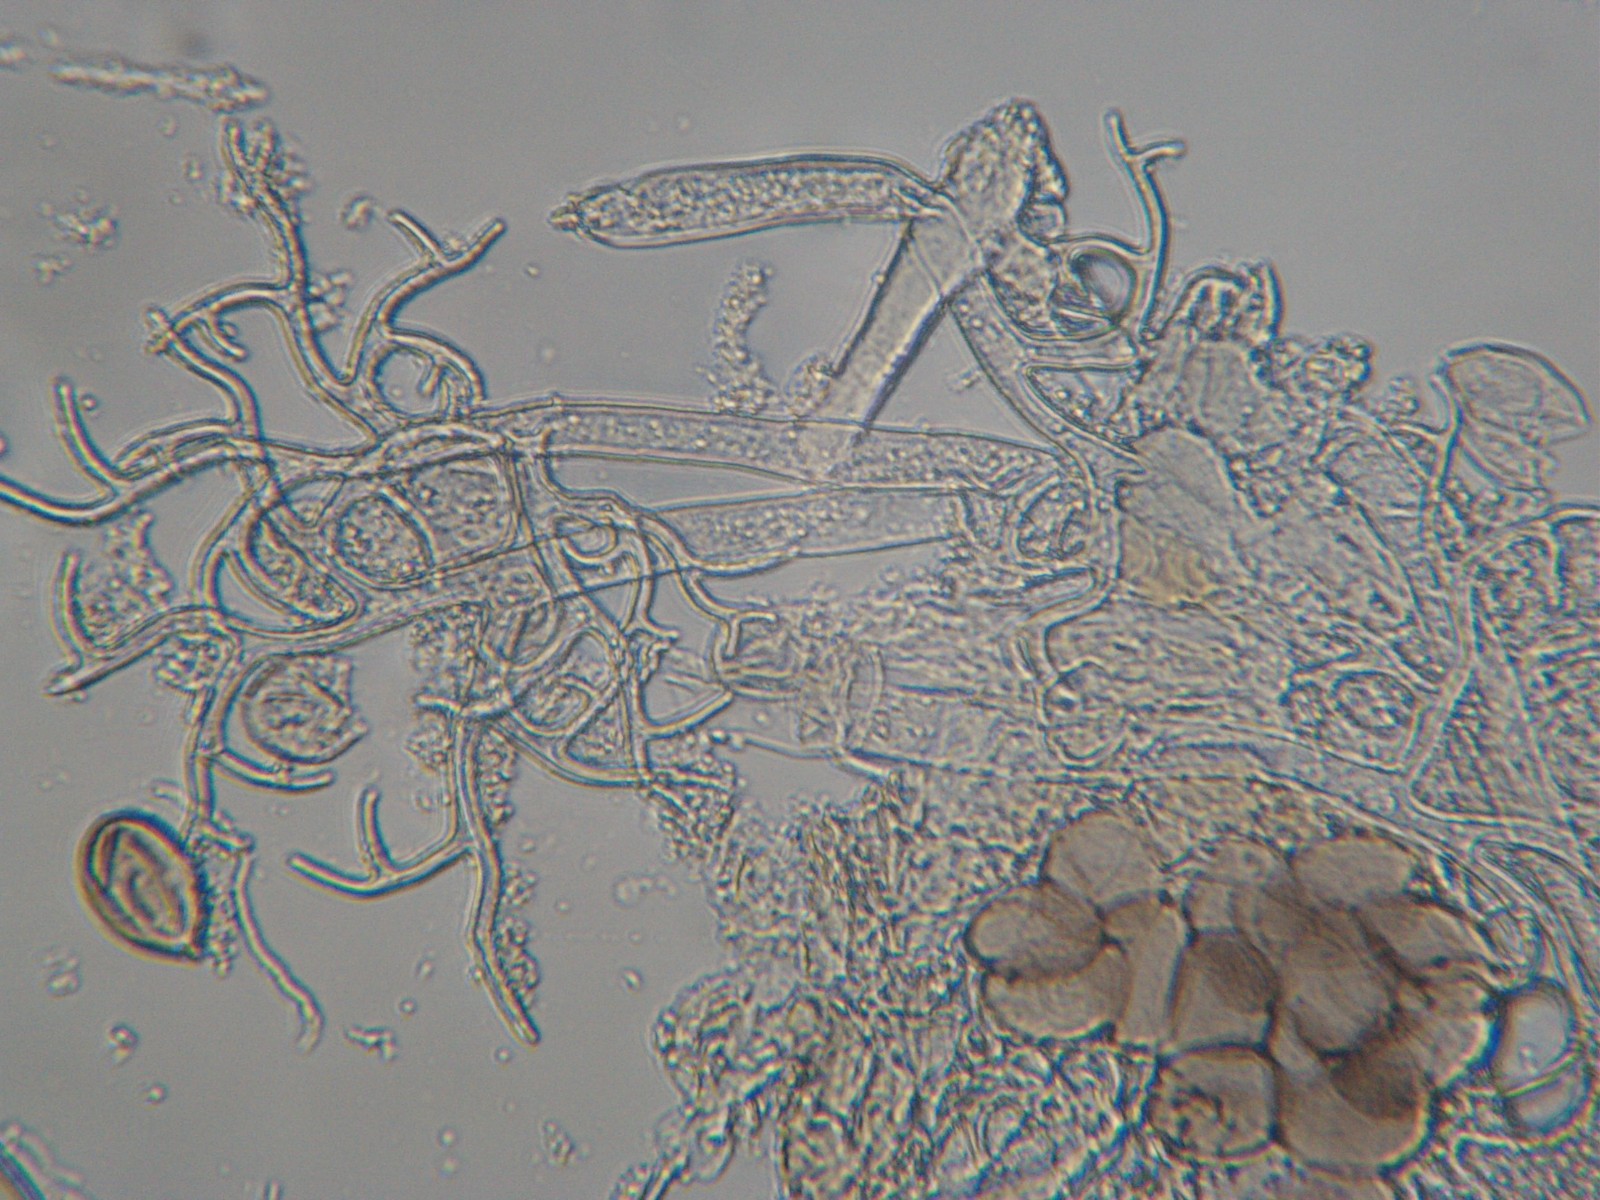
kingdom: Chromista
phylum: Oomycota
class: Peronosporea
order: Peronosporales
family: Peronosporaceae
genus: Peronospora
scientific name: Peronospora farinosa
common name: Beet downy mildew
